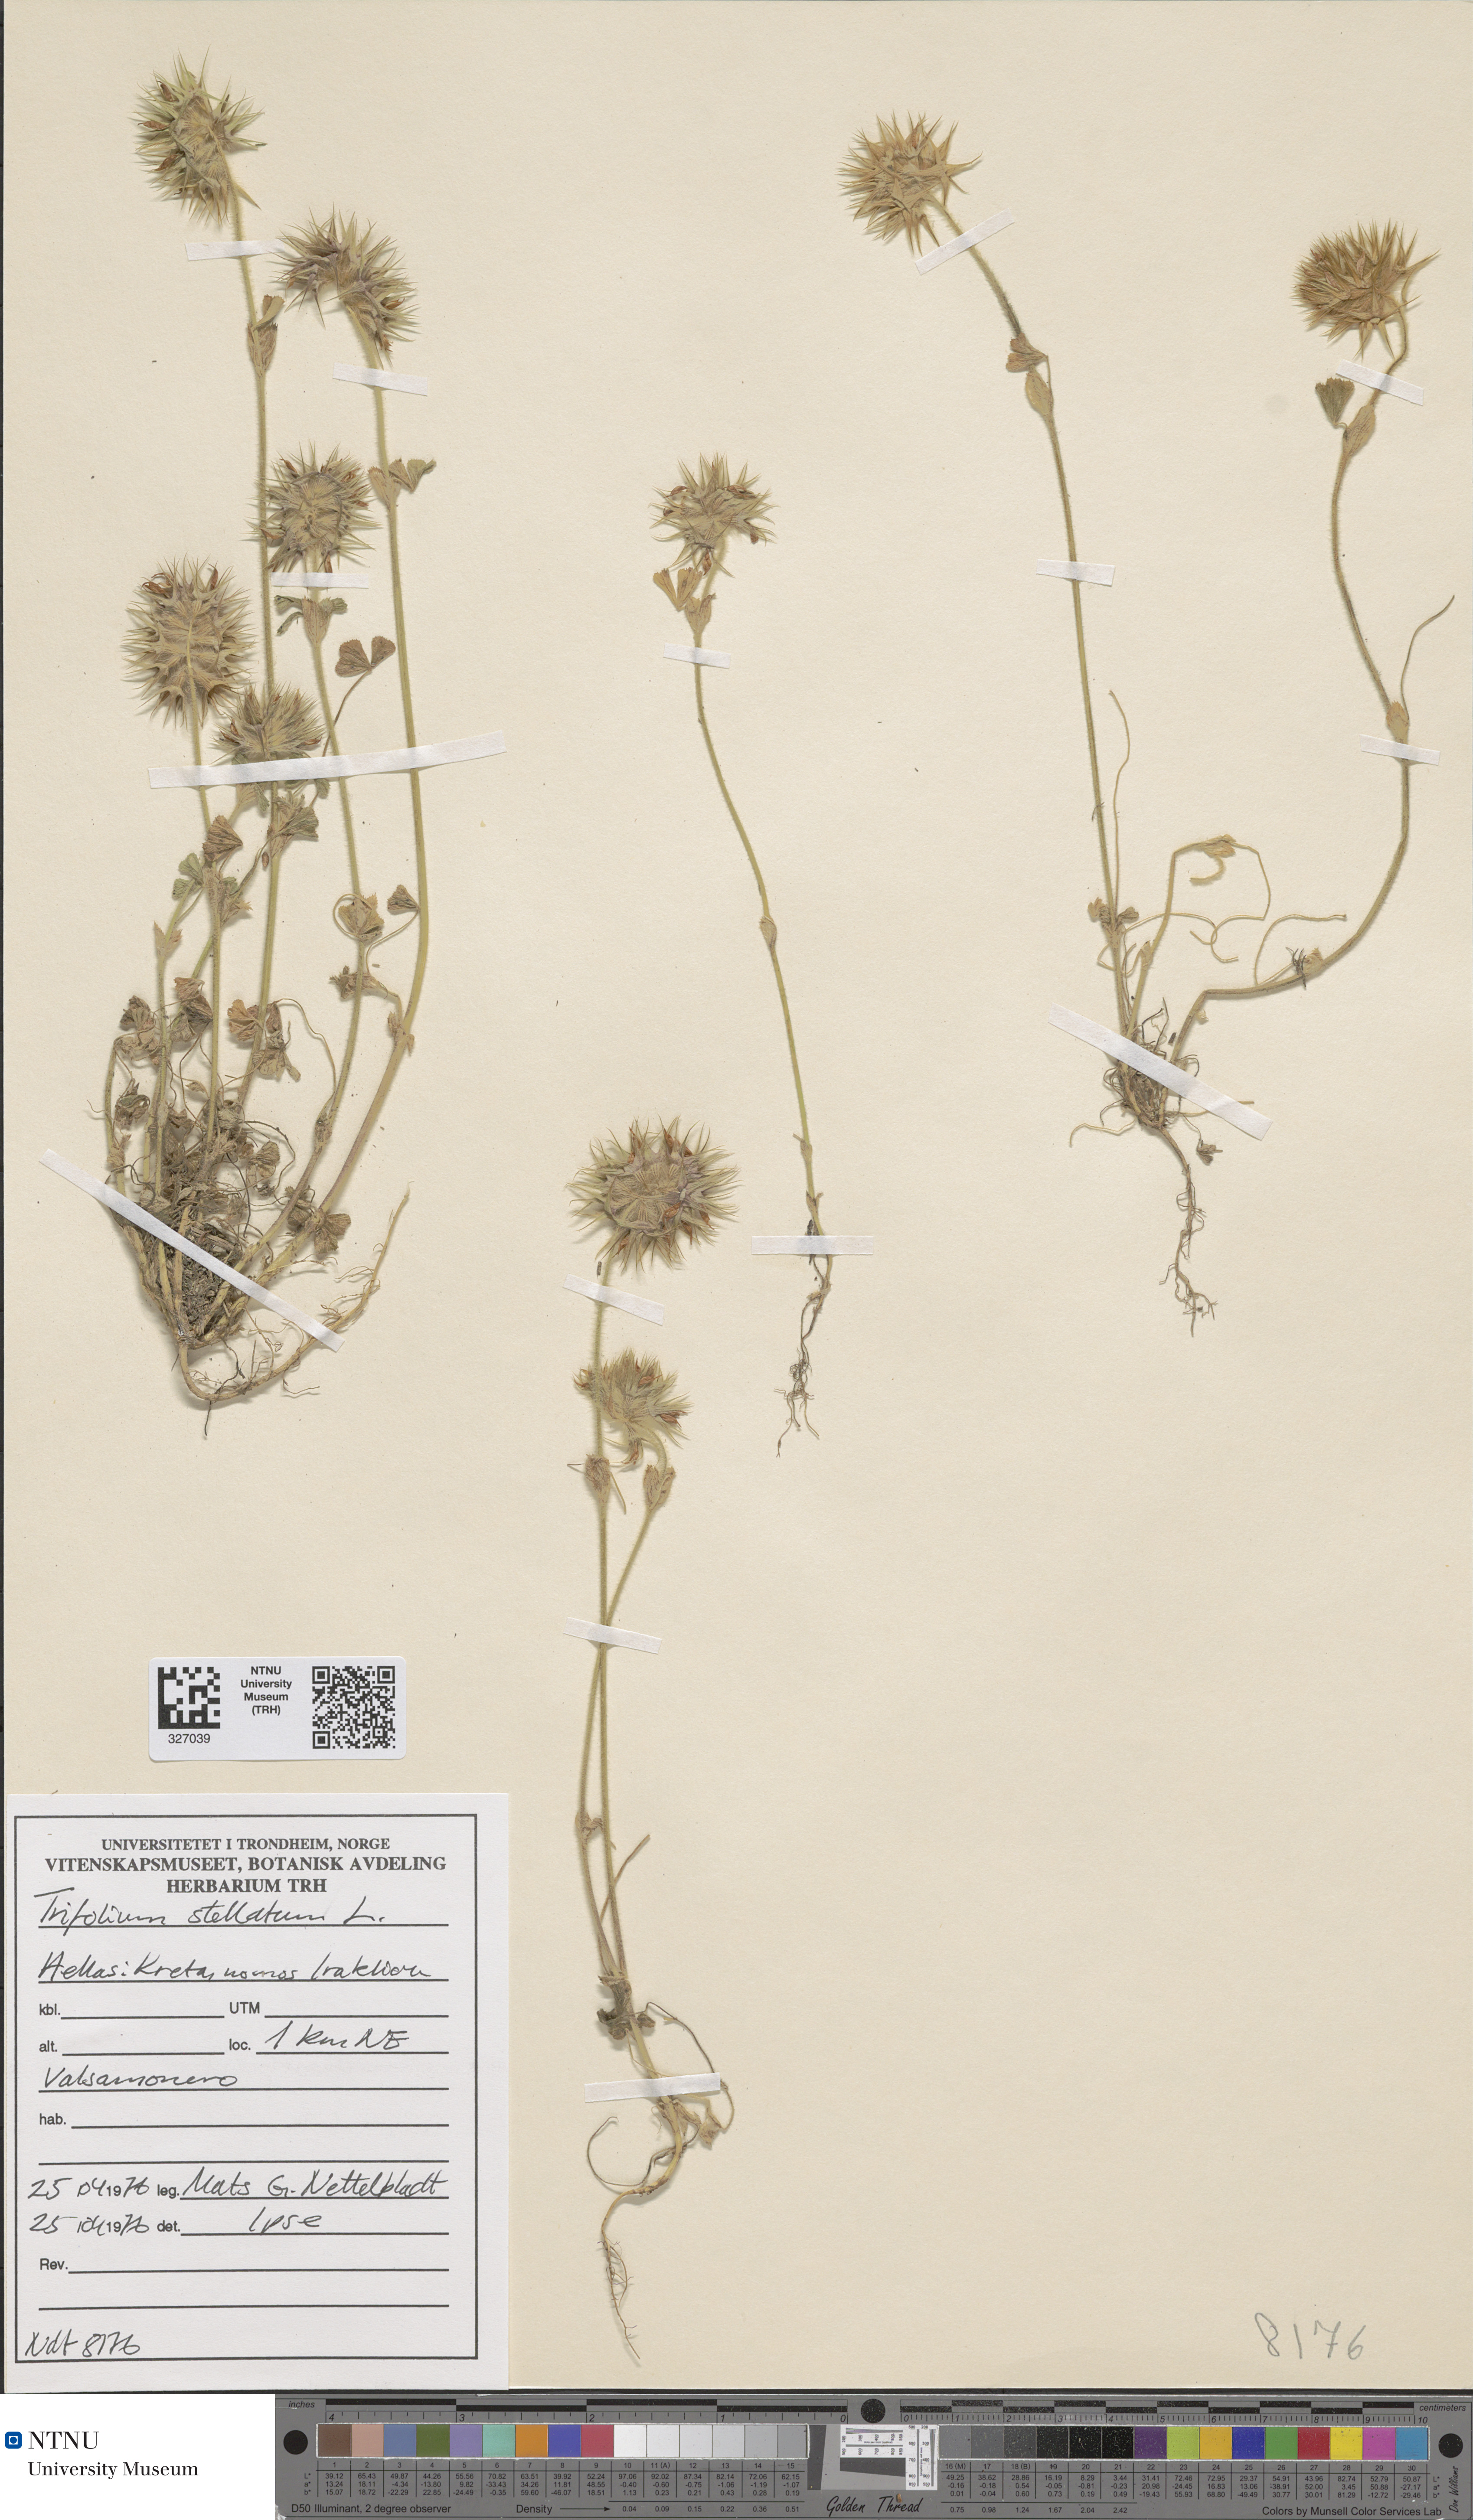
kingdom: Plantae
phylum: Tracheophyta
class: Magnoliopsida
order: Fabales
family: Fabaceae
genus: Trifolium
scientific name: Trifolium stellatum
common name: Starry clover
